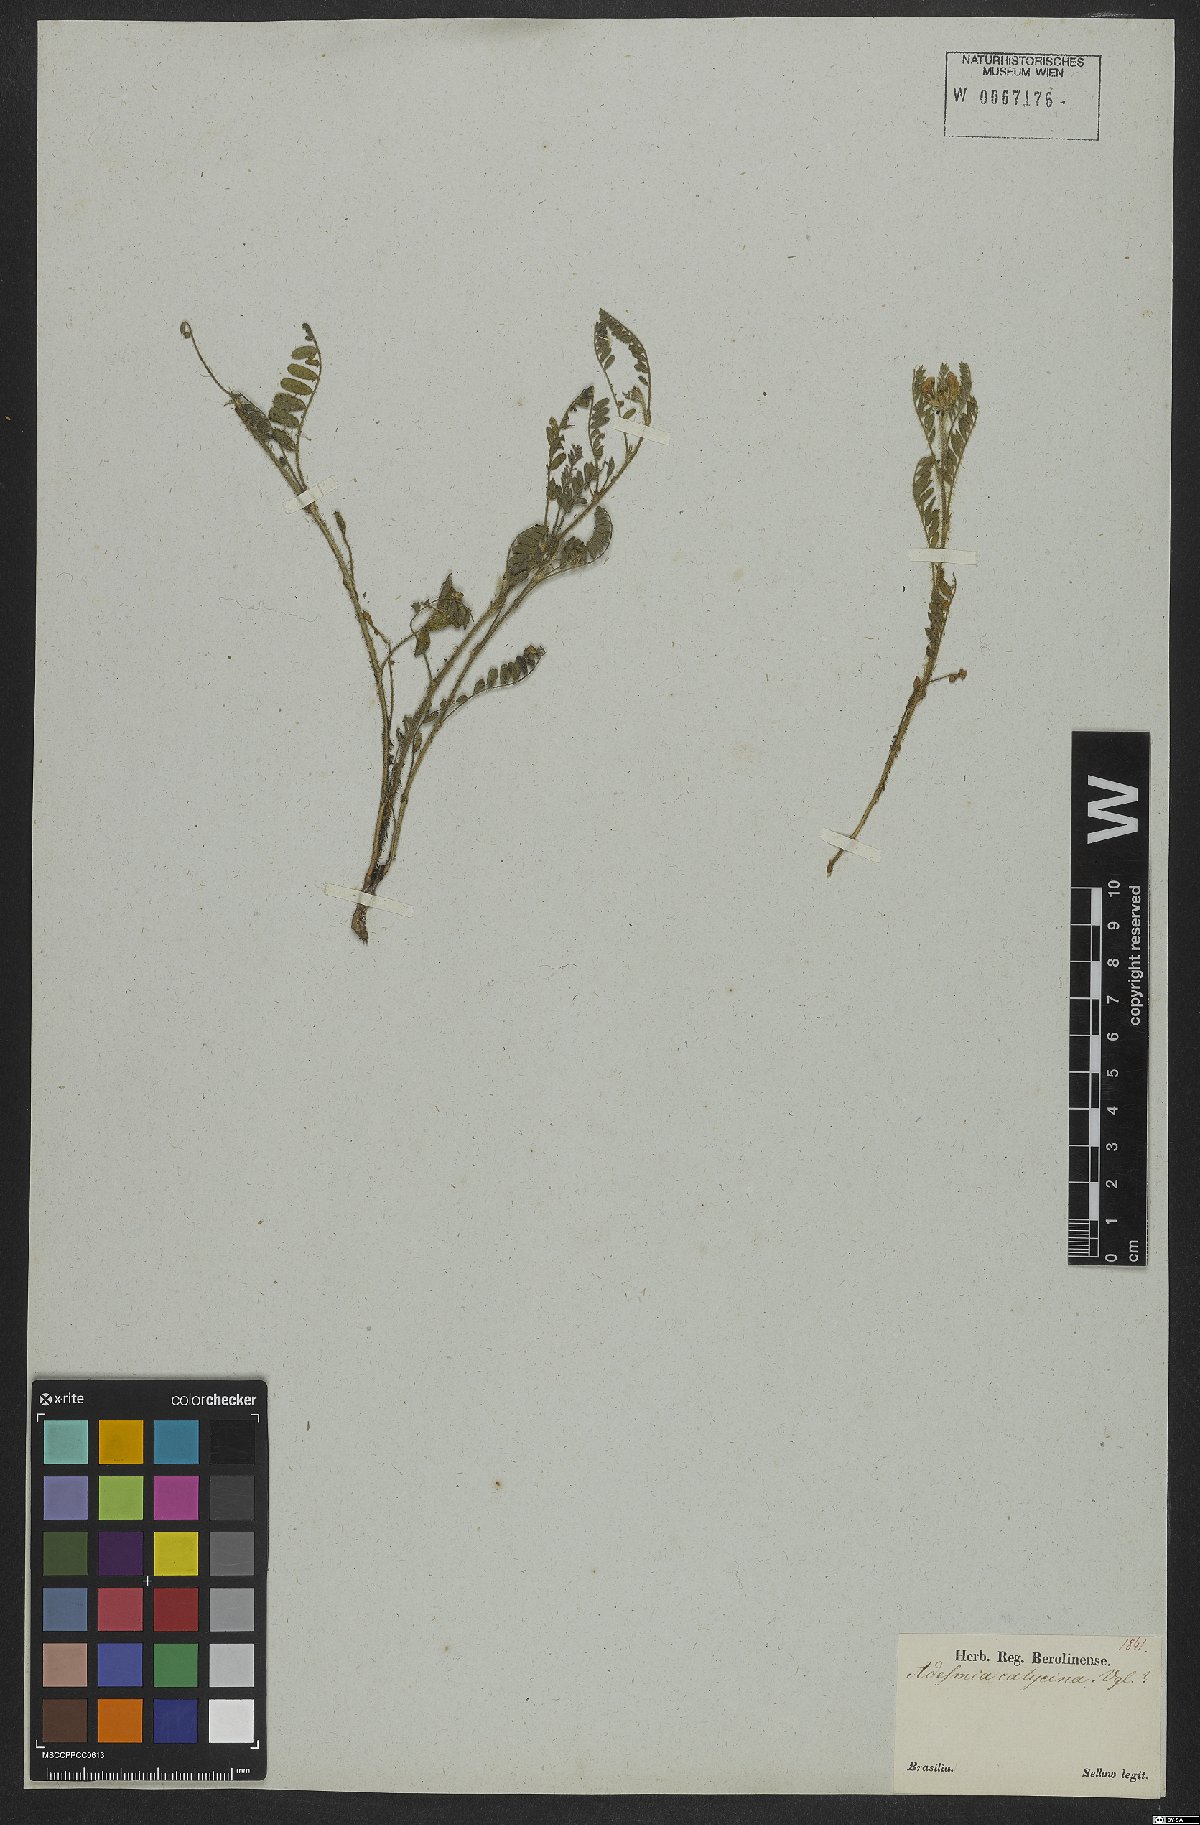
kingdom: Plantae
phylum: Tracheophyta
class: Magnoliopsida
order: Fabales
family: Fabaceae
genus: Adesmia
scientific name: Adesmia punctata
